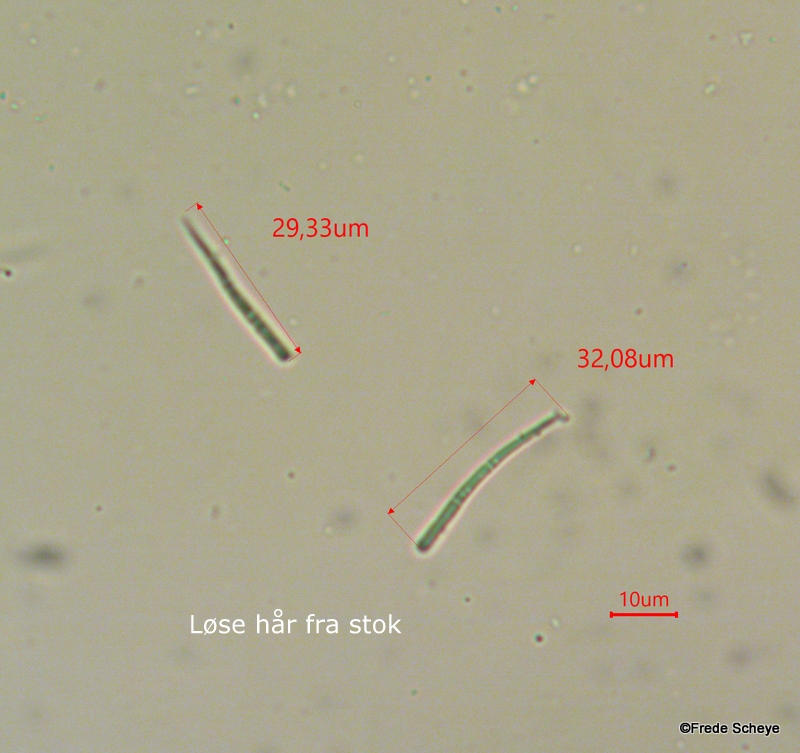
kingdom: Fungi
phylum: Basidiomycota
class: Agaricomycetes
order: Agaricales
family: Typhulaceae
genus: Typhula
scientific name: Typhula setipes
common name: liden trådkølle
